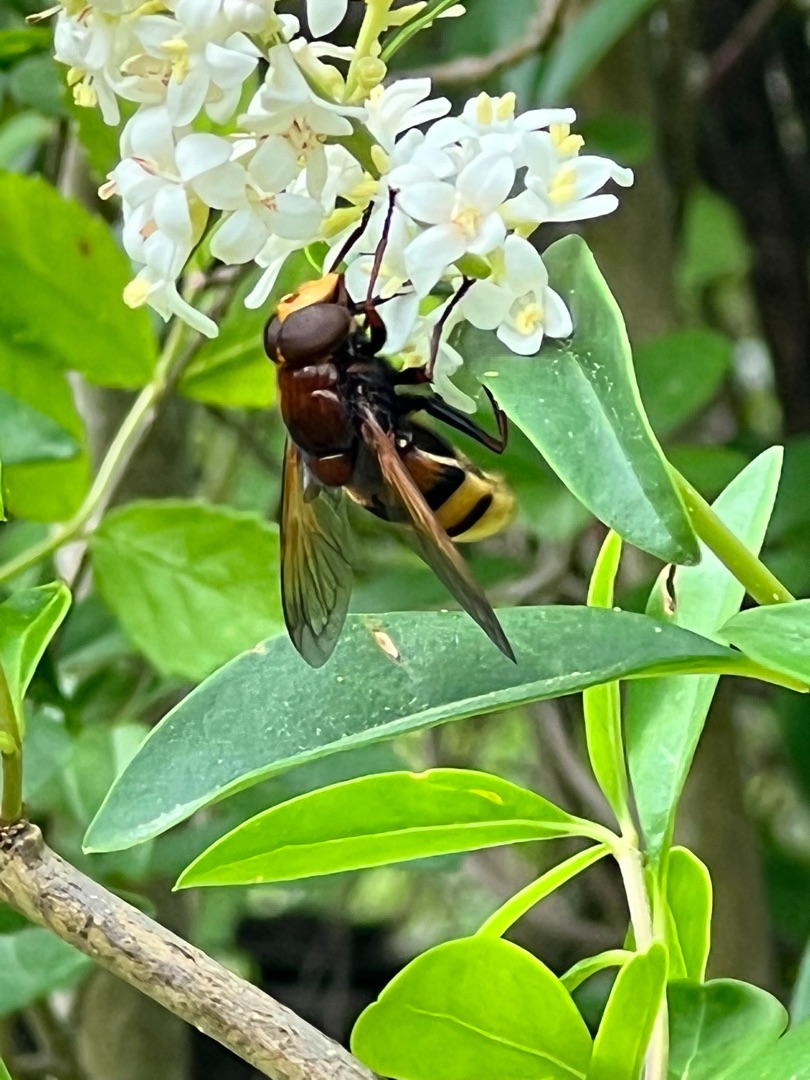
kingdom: Animalia
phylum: Arthropoda
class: Insecta
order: Diptera
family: Syrphidae
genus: Volucella
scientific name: Volucella zonaria
